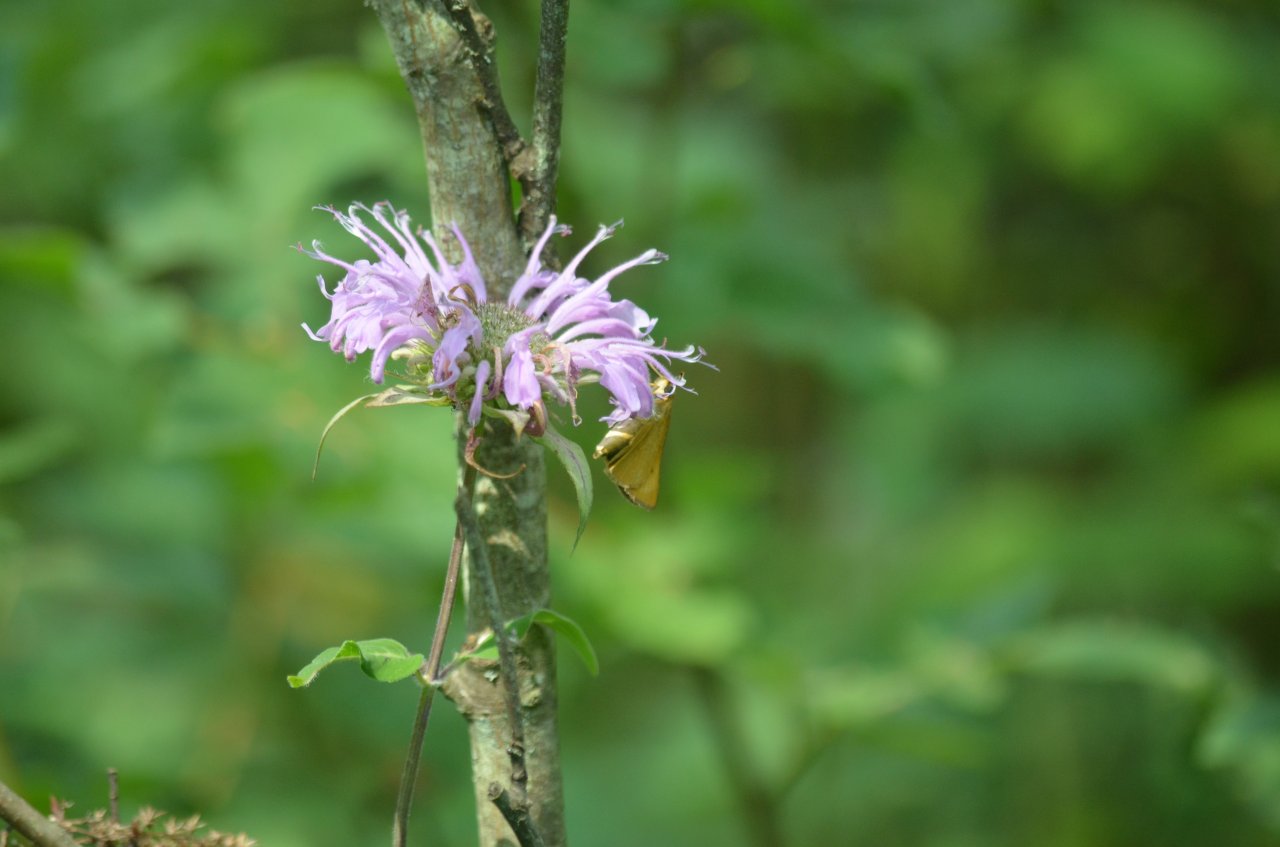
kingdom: Animalia
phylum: Arthropoda
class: Insecta
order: Lepidoptera
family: Hesperiidae
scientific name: Hesperiidae
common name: Skippers
